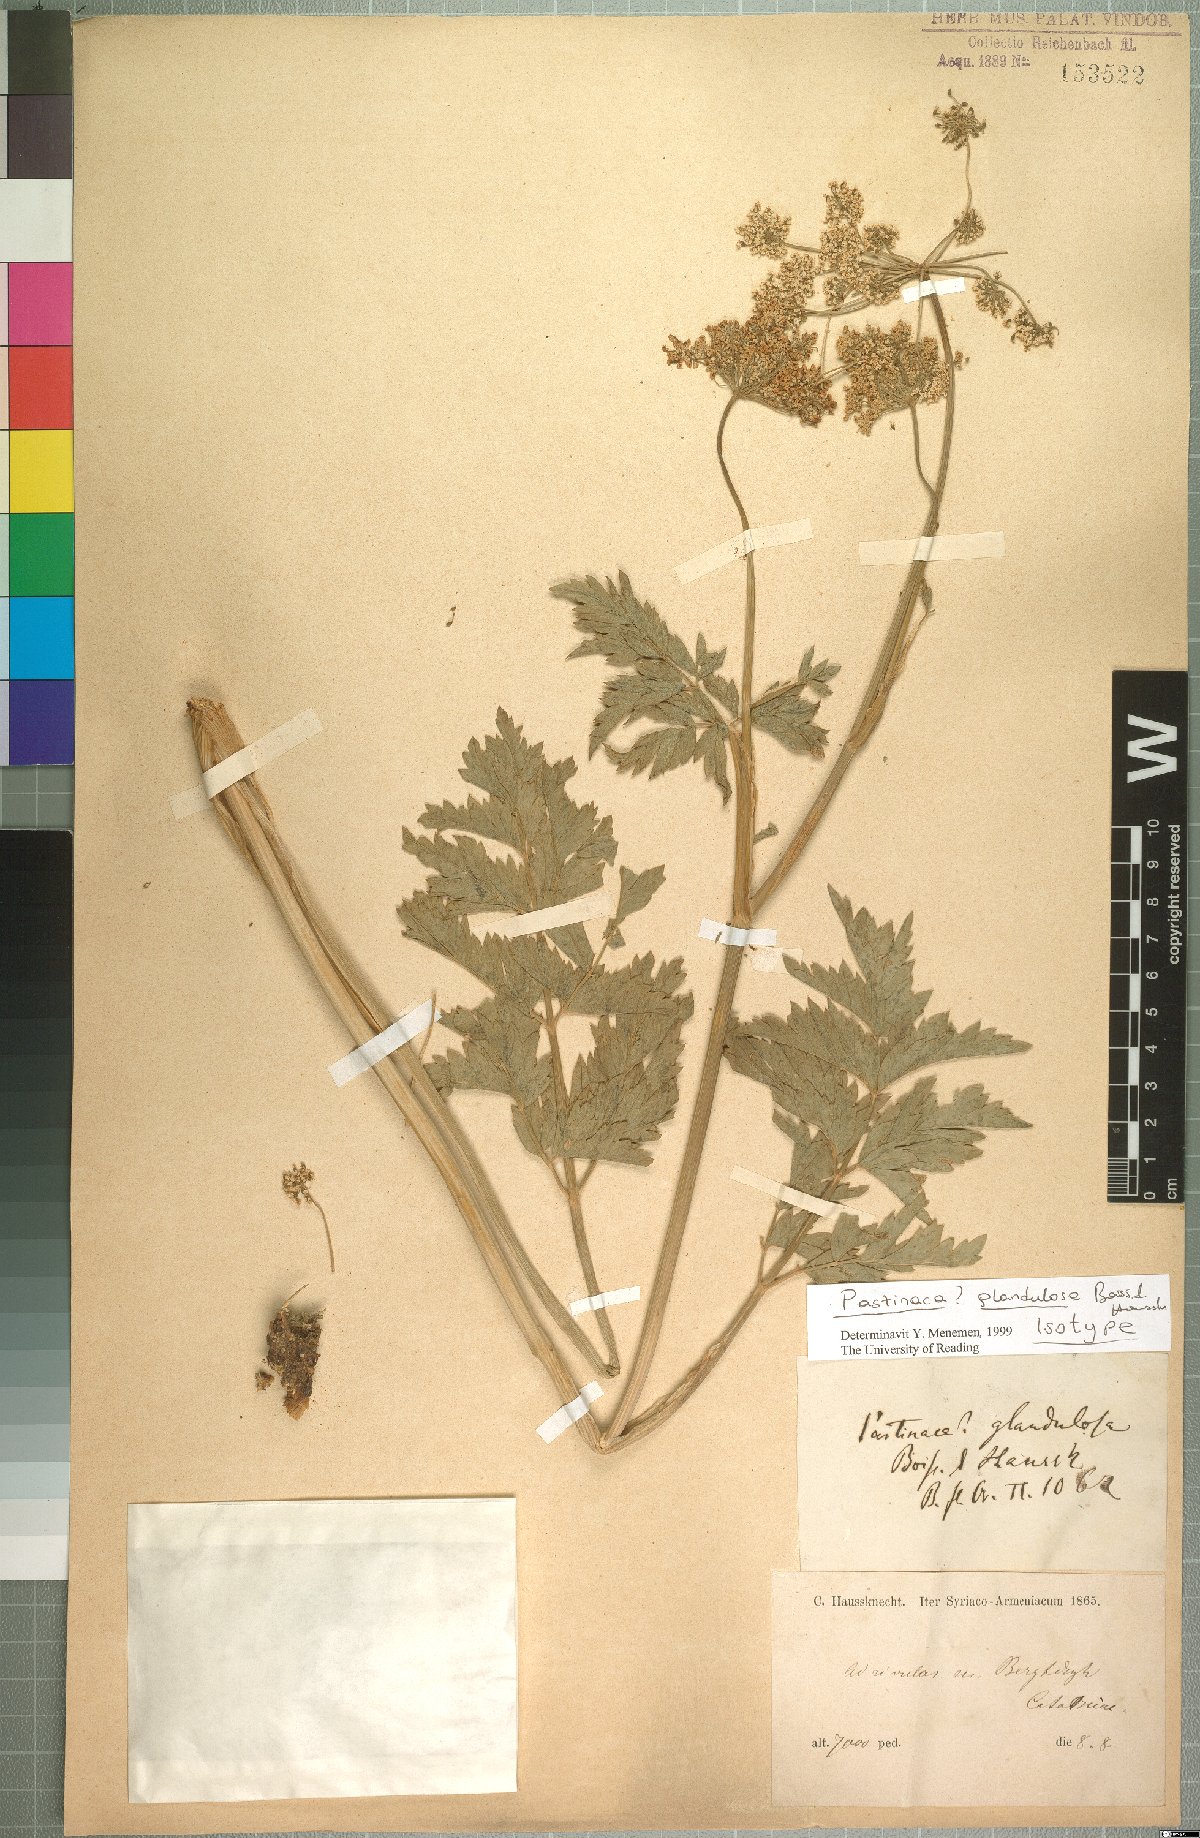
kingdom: Plantae
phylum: Tracheophyta
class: Magnoliopsida
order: Apiales
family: Apiaceae
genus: Pastinaca
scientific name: Pastinaca glandulosa
